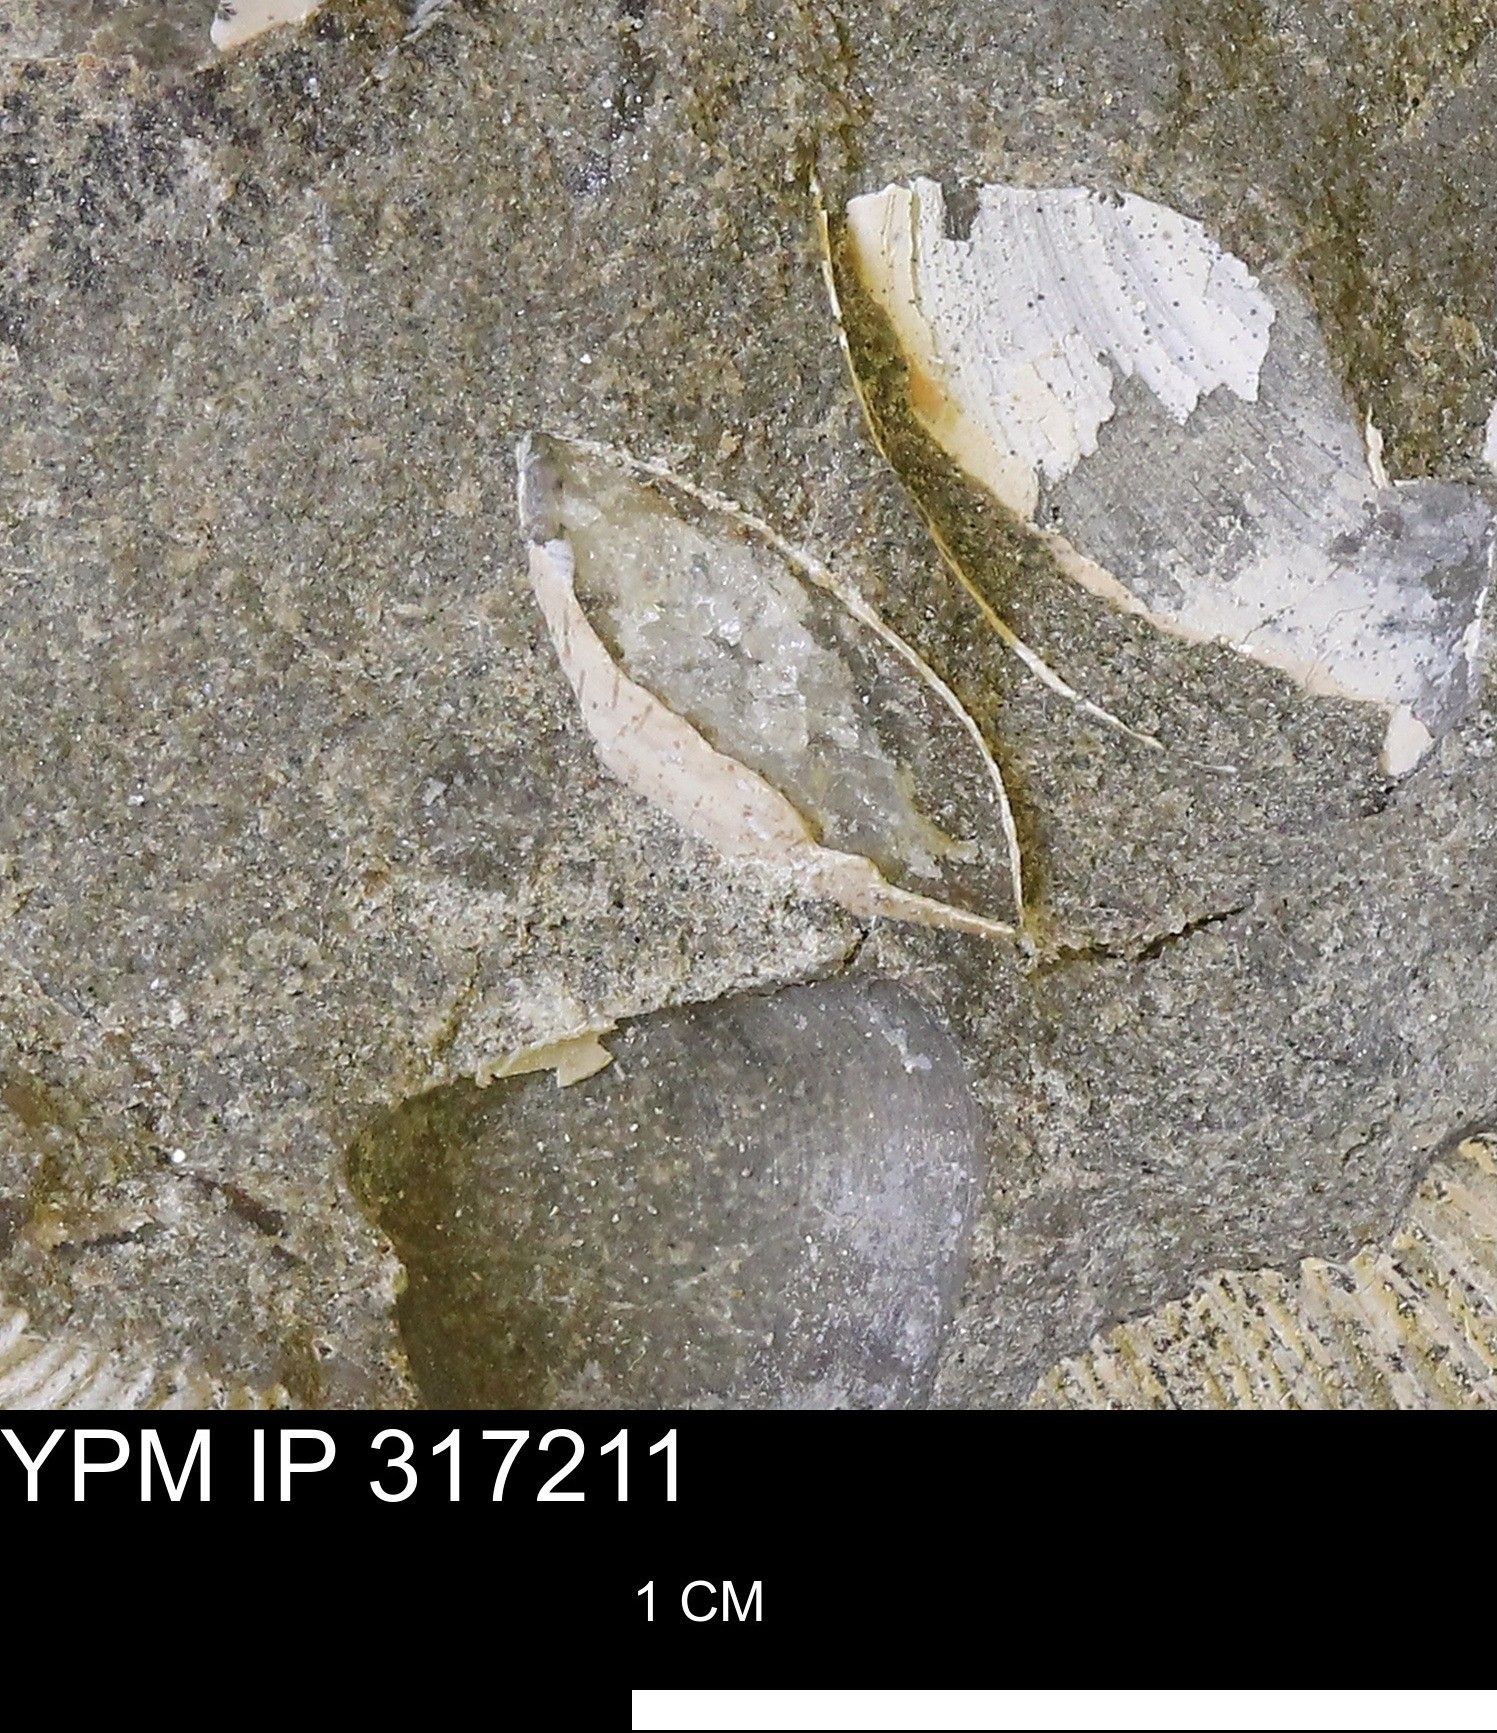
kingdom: Animalia
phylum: Mollusca
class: Bivalvia
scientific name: Bivalvia
